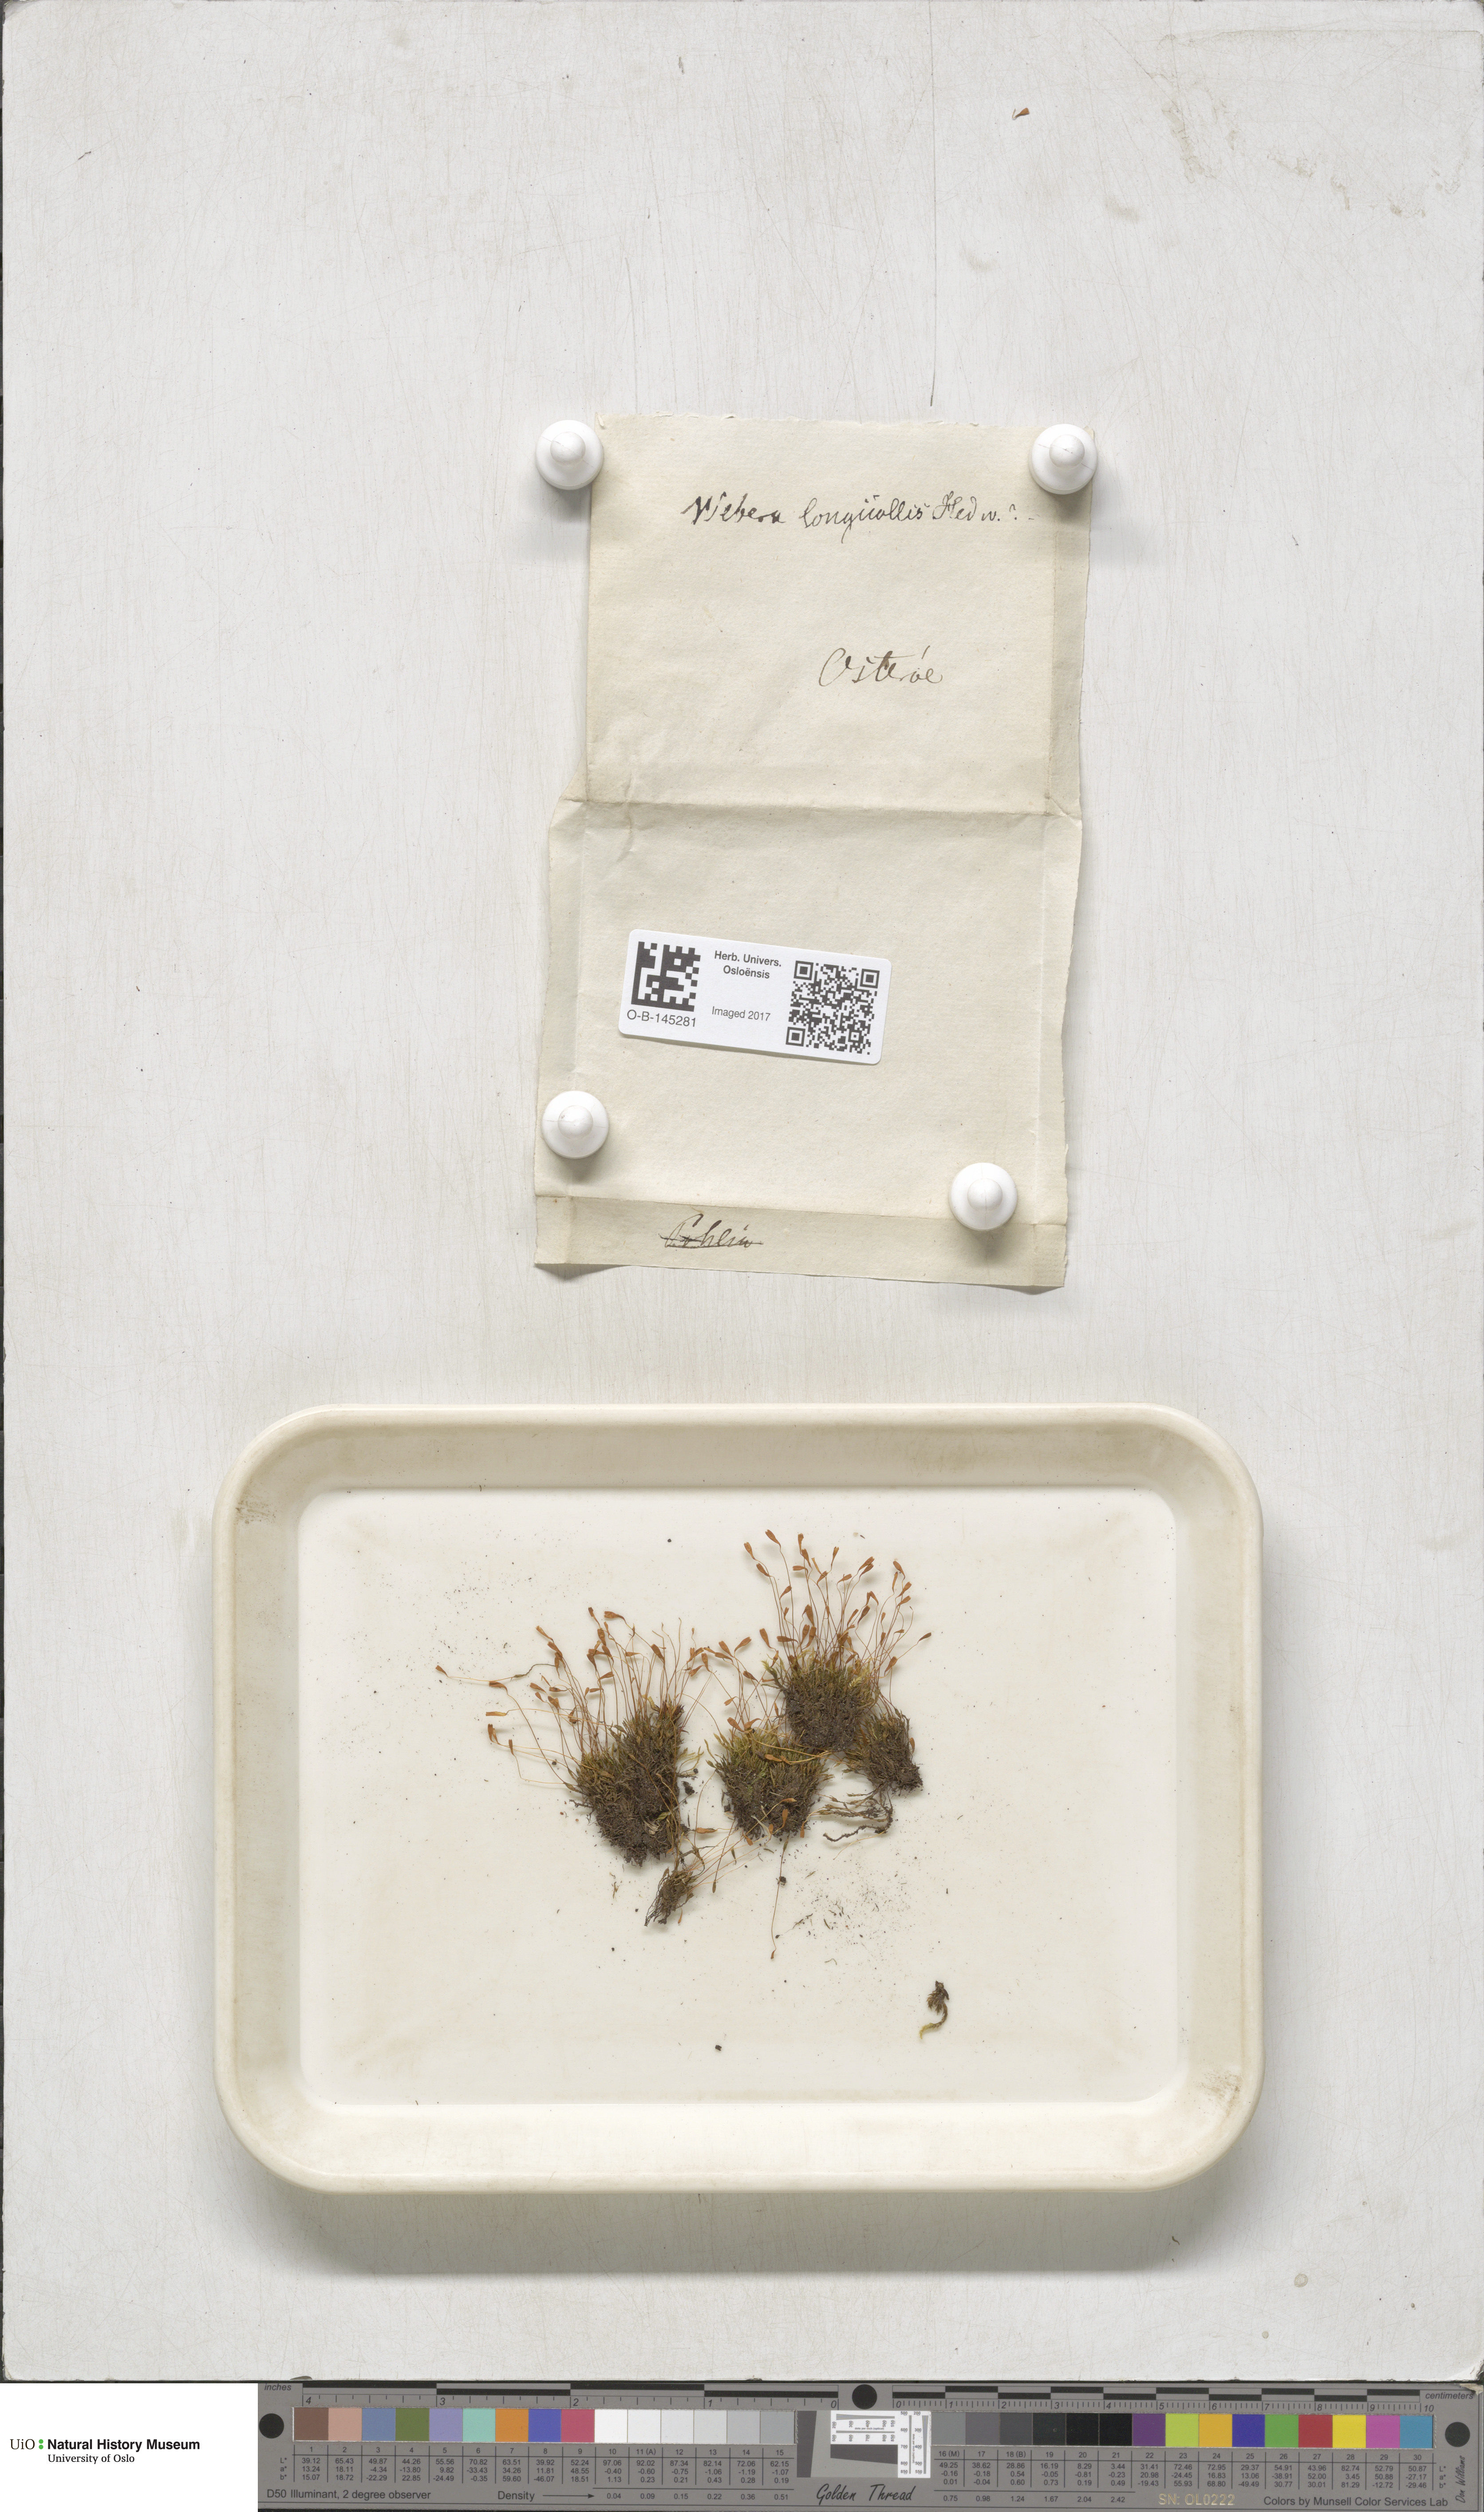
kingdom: Plantae
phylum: Bryophyta
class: Bryopsida
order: Bryales
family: Mniaceae
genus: Pohlia
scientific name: Pohlia longicolla
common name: Long-necked nodding moss
